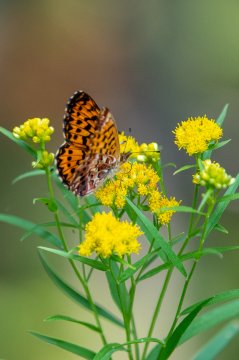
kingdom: Animalia
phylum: Arthropoda
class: Insecta
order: Lepidoptera
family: Nymphalidae
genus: Boloria
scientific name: Boloria chariclea
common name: Arctic Fritillary
